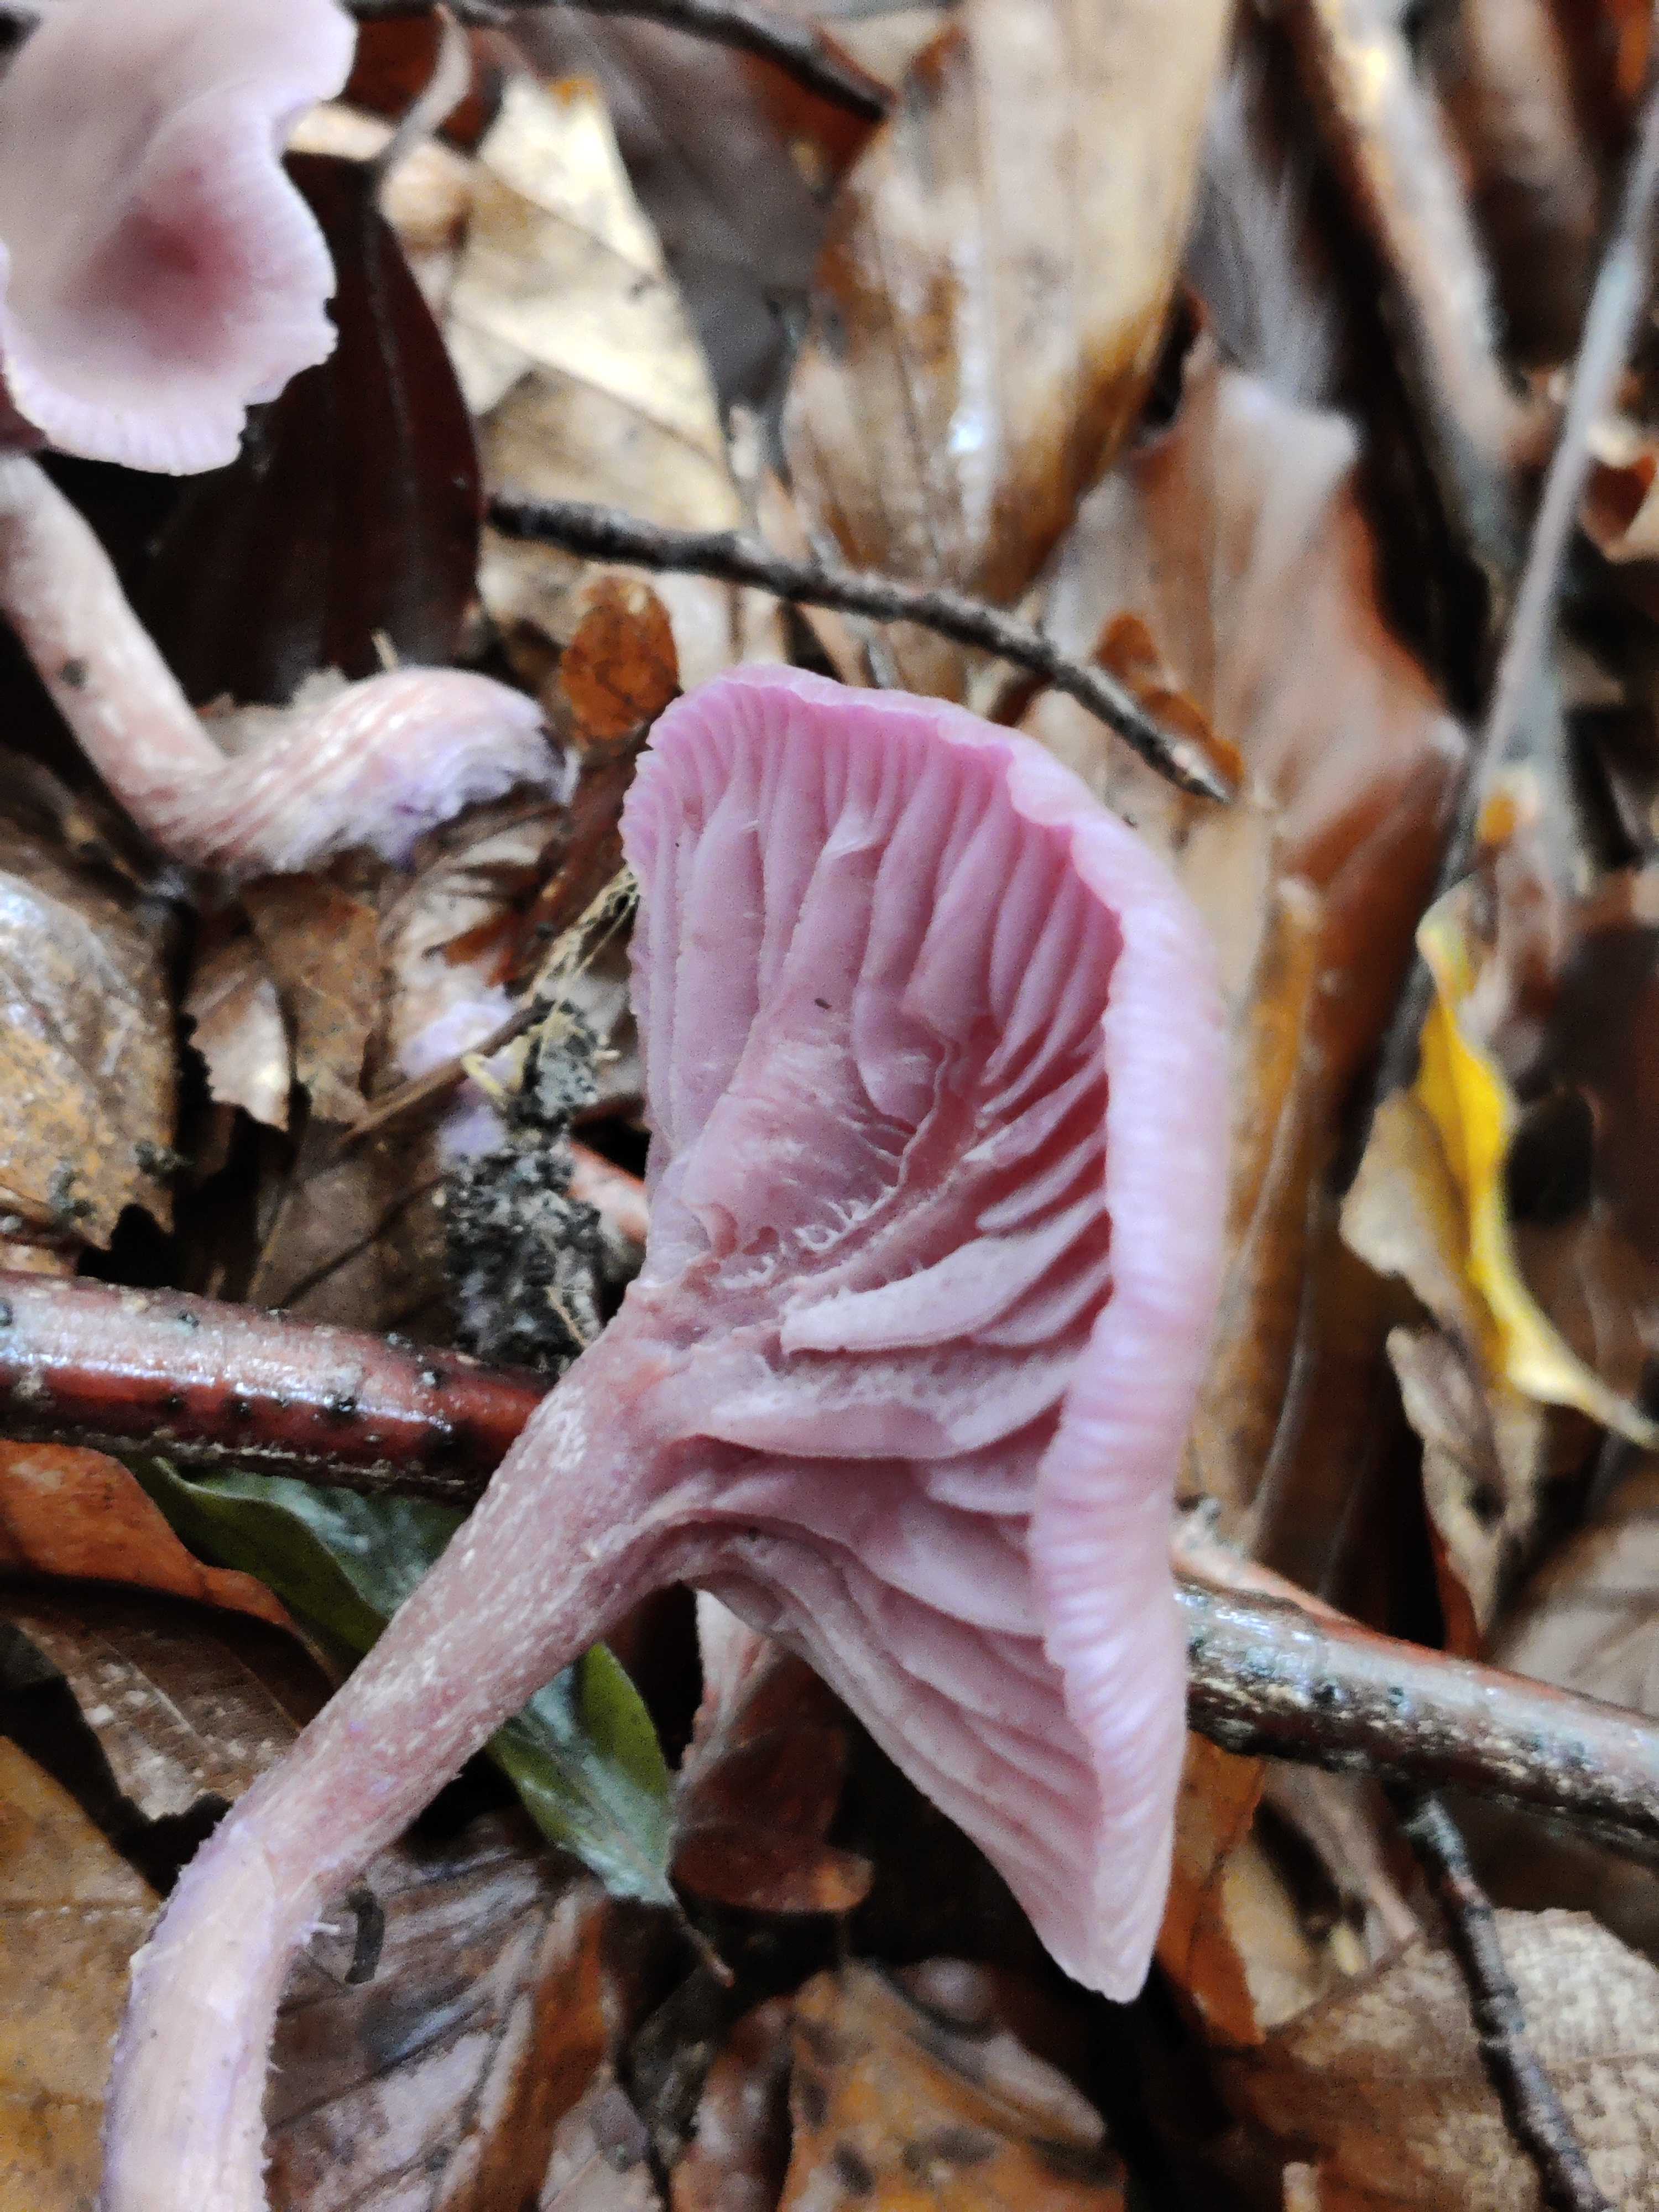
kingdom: Fungi
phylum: Basidiomycota
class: Agaricomycetes
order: Agaricales
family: Hydnangiaceae
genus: Laccaria
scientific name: Laccaria amethystina
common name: violet ametysthat
